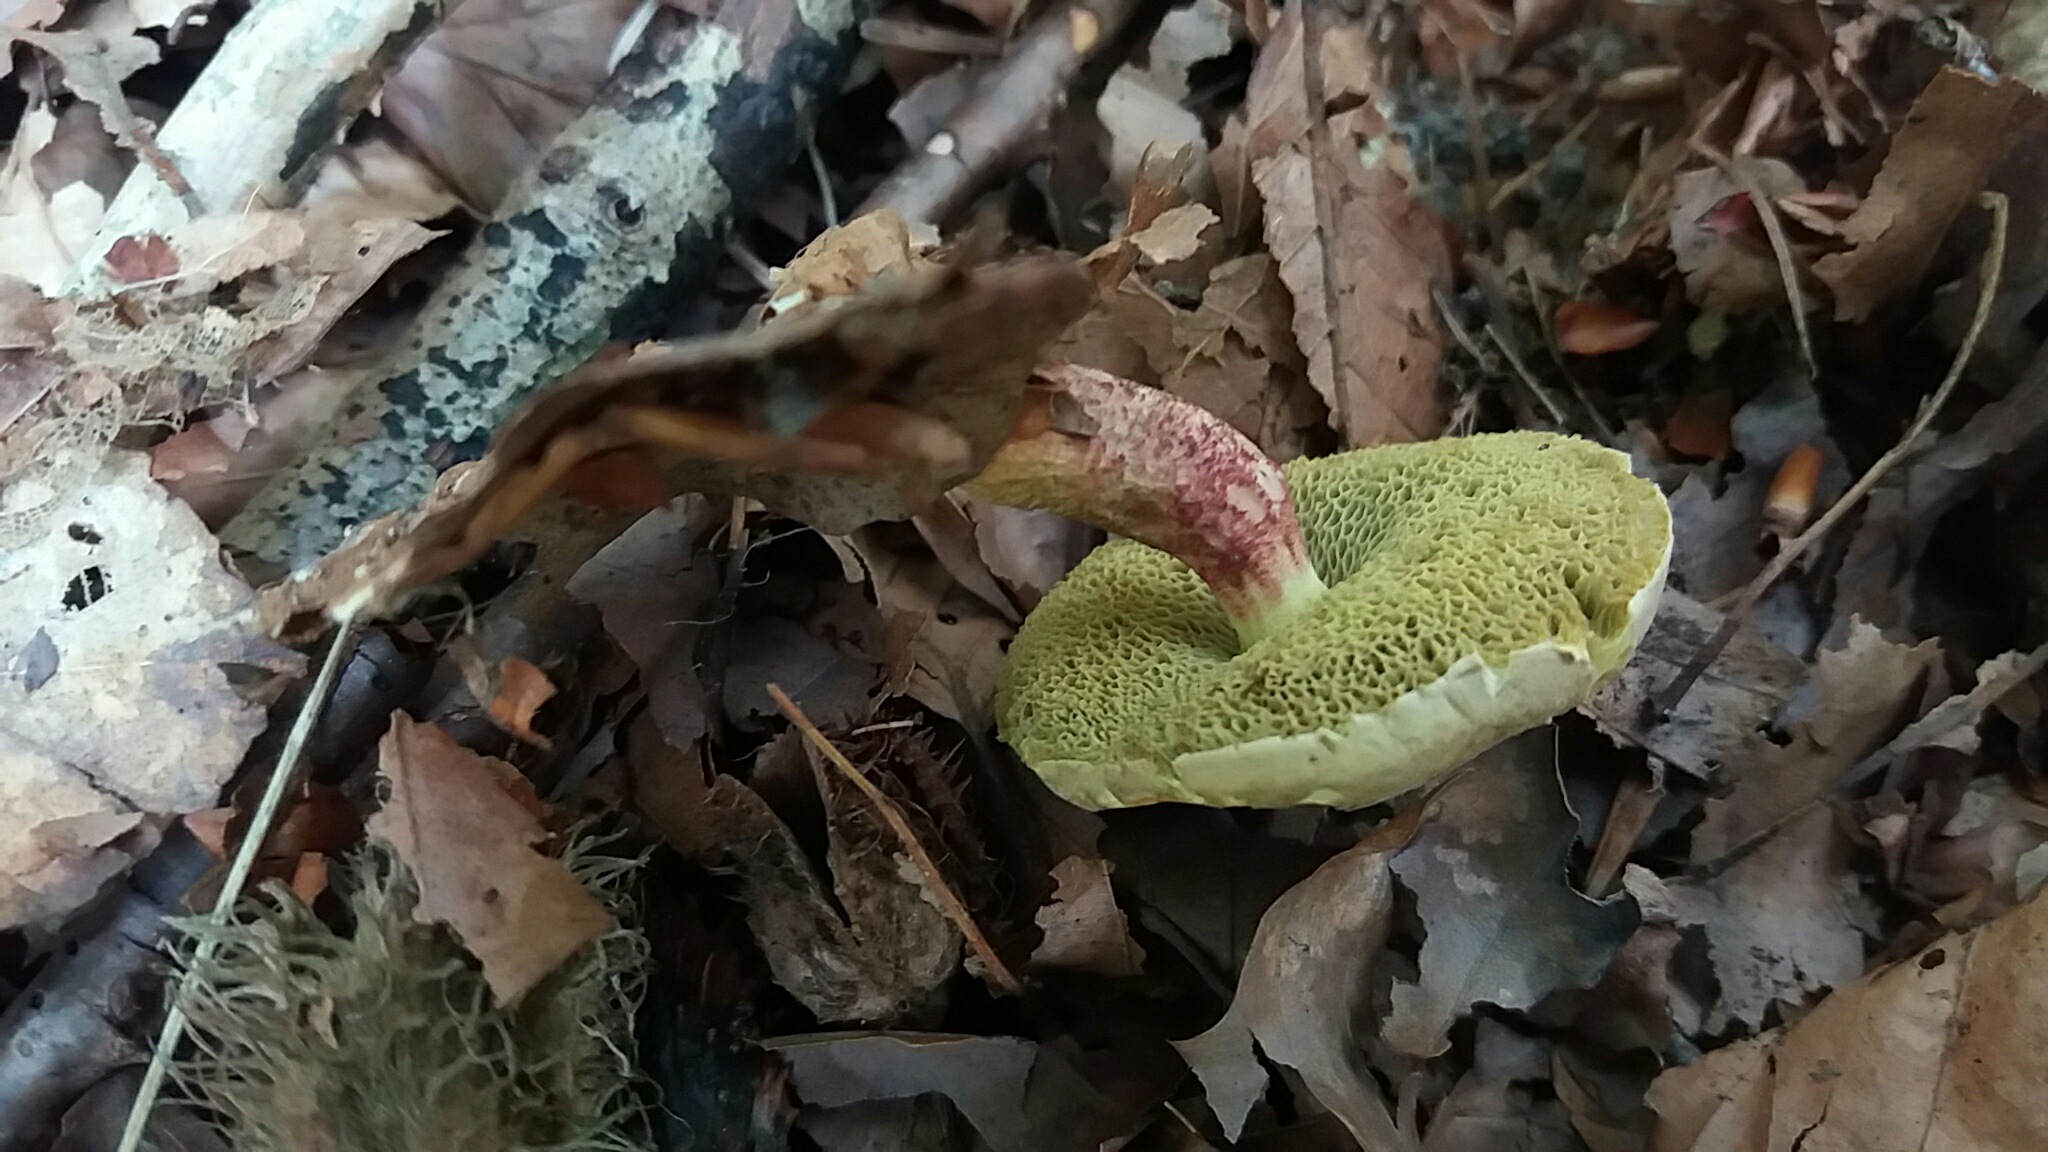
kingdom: Fungi
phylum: Basidiomycota
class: Agaricomycetes
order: Boletales
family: Boletaceae
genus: Xerocomellus
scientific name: Xerocomellus chrysenteron
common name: rødsprukken rørhat
